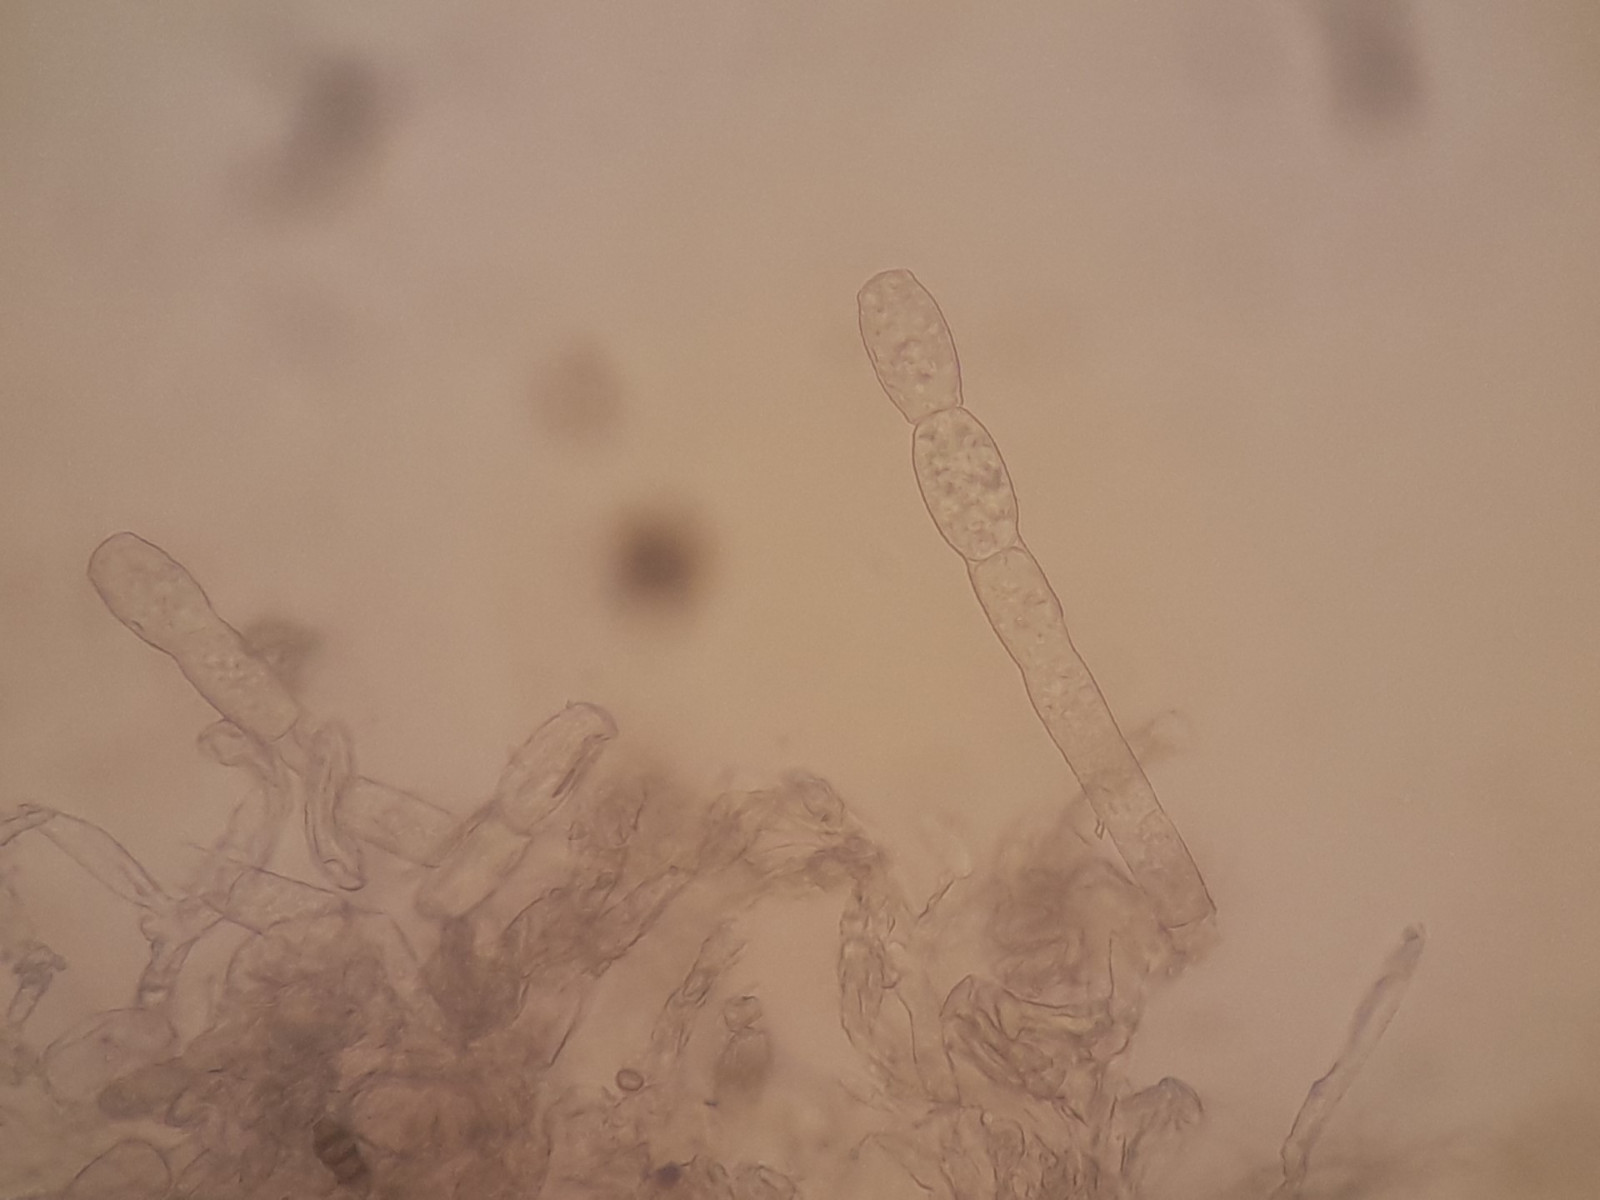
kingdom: Fungi
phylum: Ascomycota
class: Leotiomycetes
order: Helotiales
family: Erysiphaceae
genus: Podosphaera
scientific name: Podosphaera filipendulae
